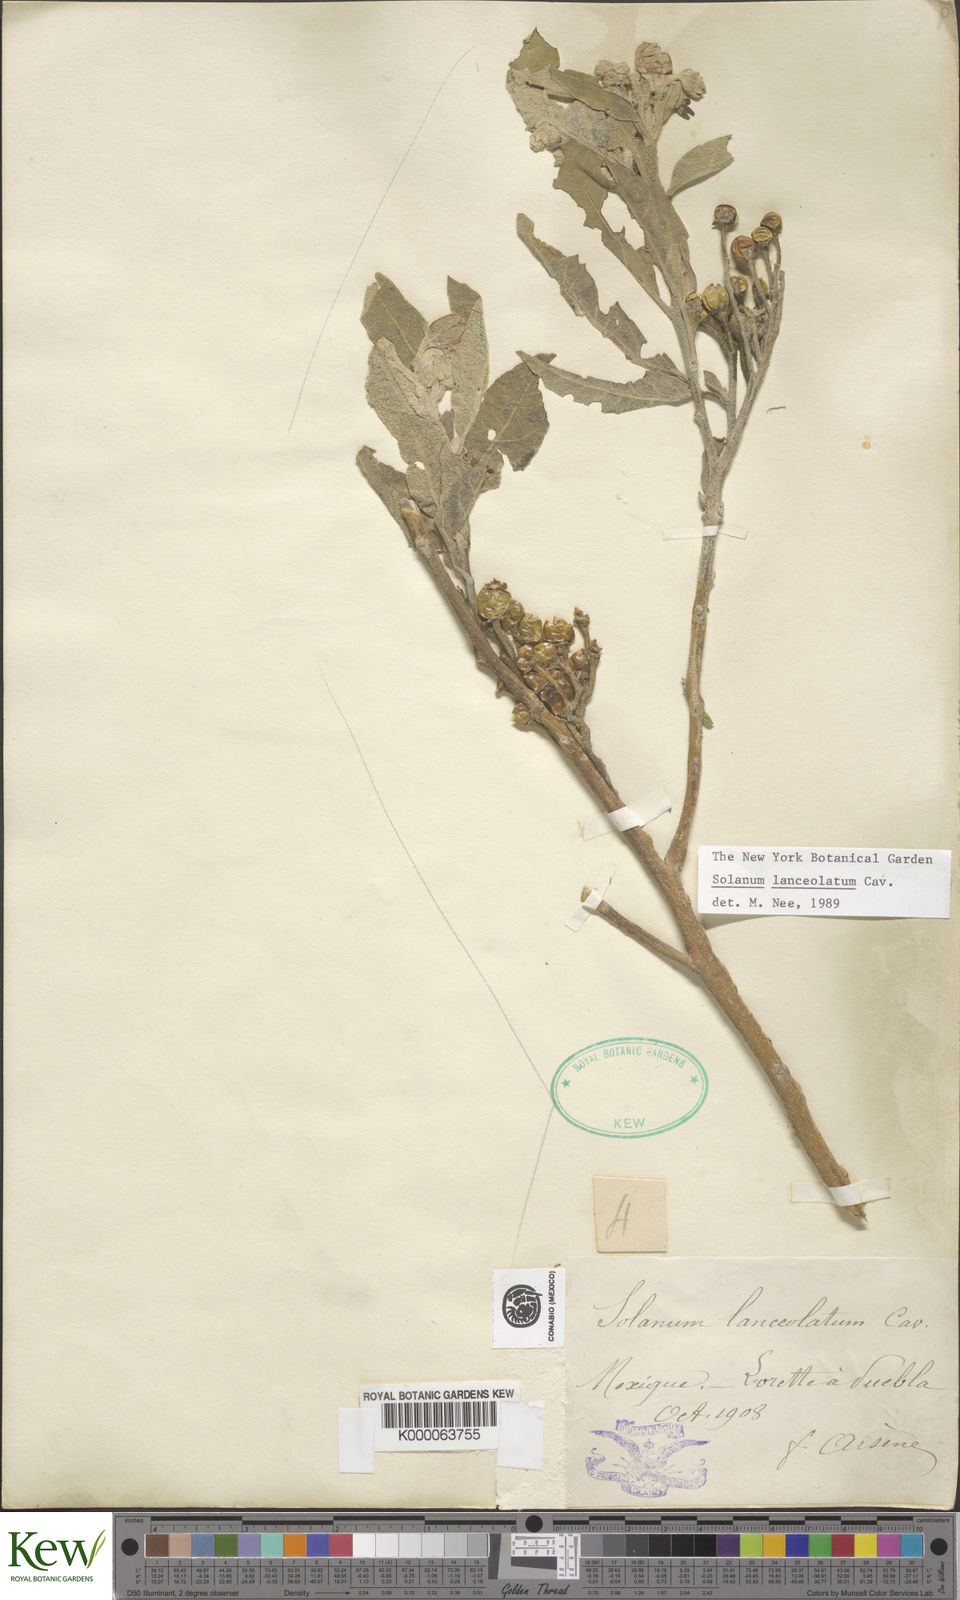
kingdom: Plantae
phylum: Tracheophyta
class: Magnoliopsida
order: Solanales
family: Solanaceae
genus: Solanum
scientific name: Solanum lanceolatum
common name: Orangeberry nightshade
